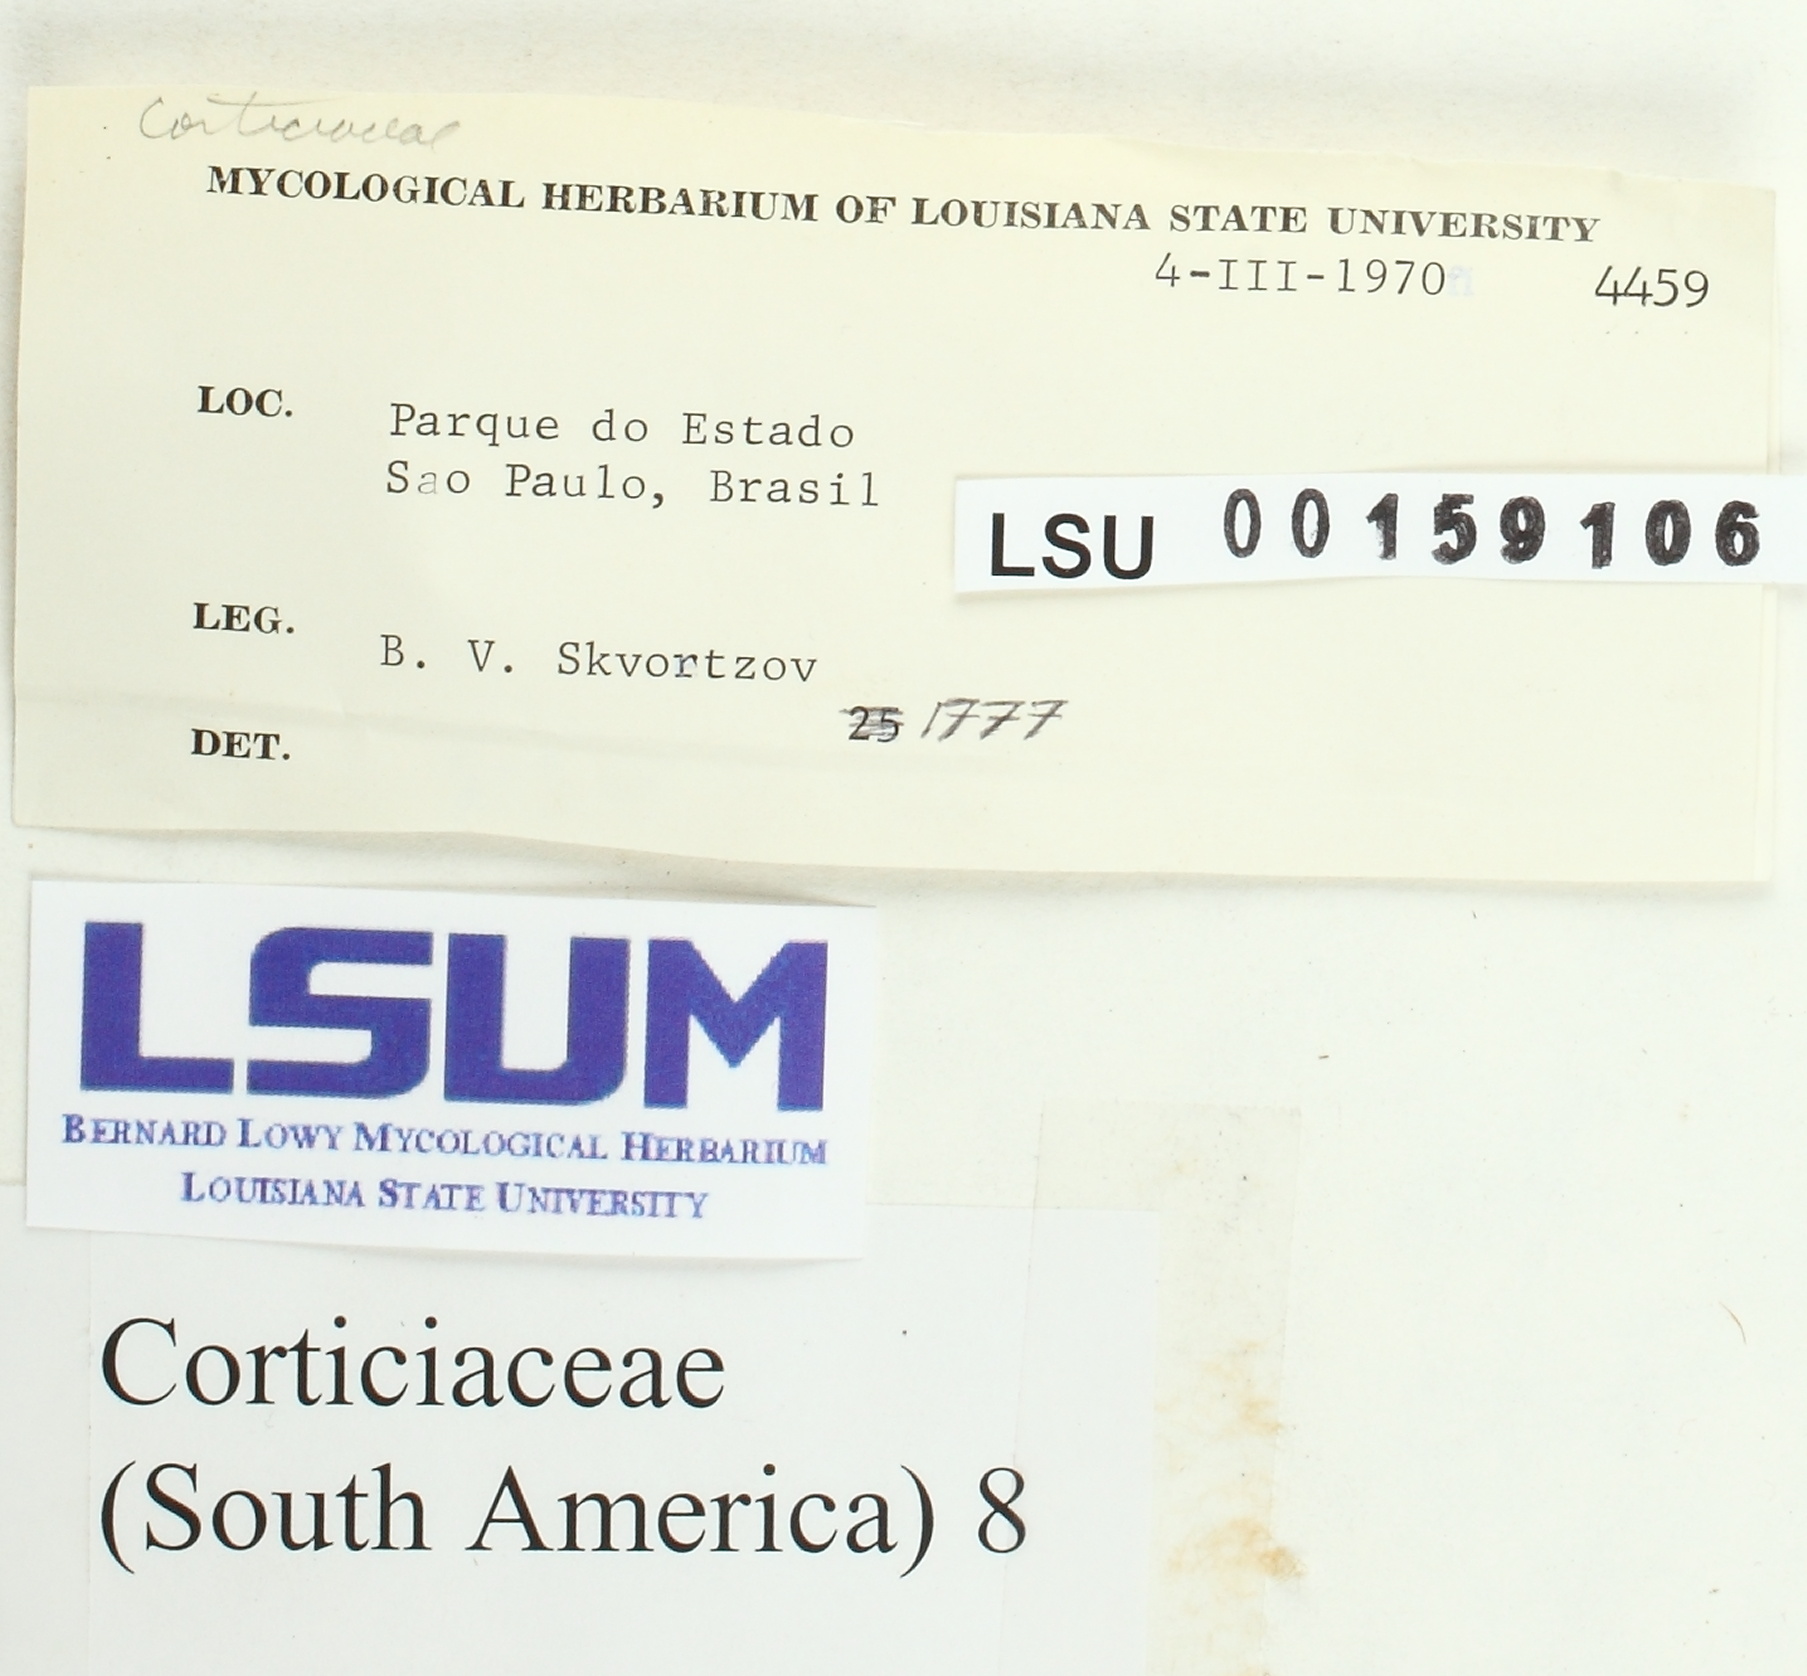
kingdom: Fungi
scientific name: Fungi
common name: Fungi
